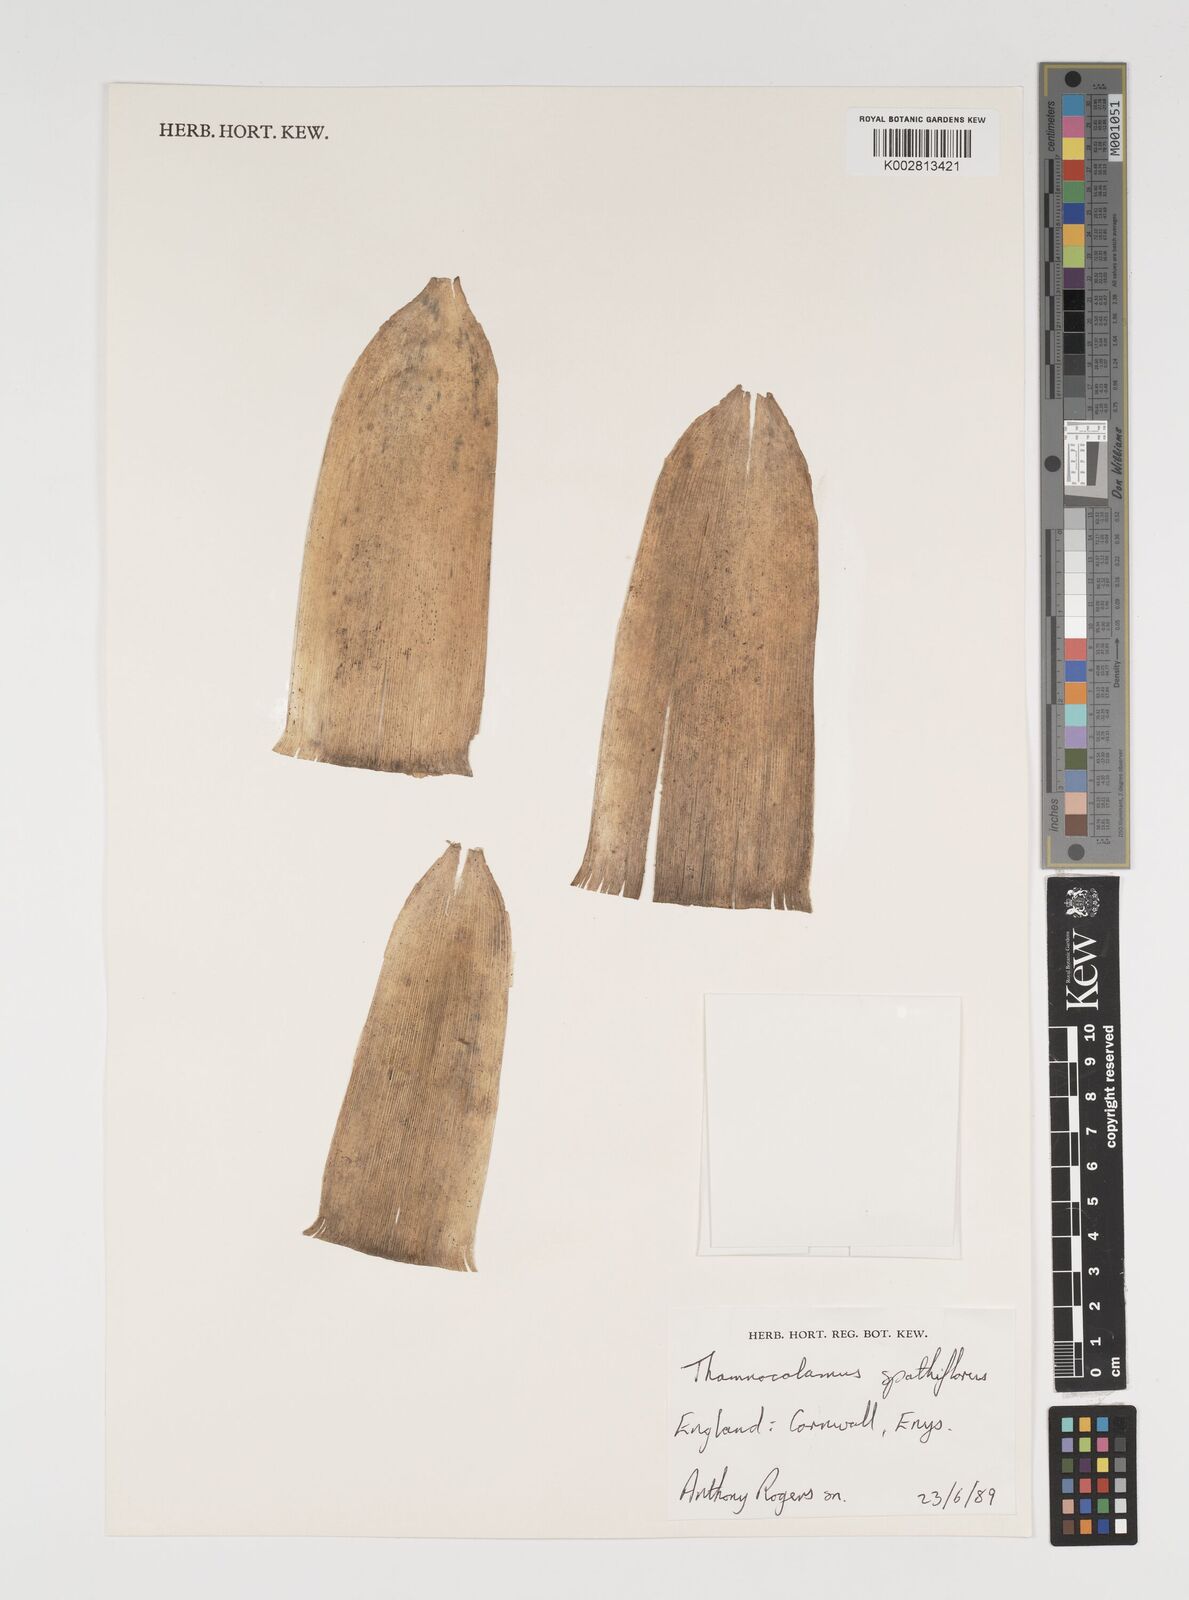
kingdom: Plantae
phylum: Tracheophyta
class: Liliopsida
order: Poales
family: Poaceae
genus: Thamnocalamus
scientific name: Thamnocalamus spathiflorus
